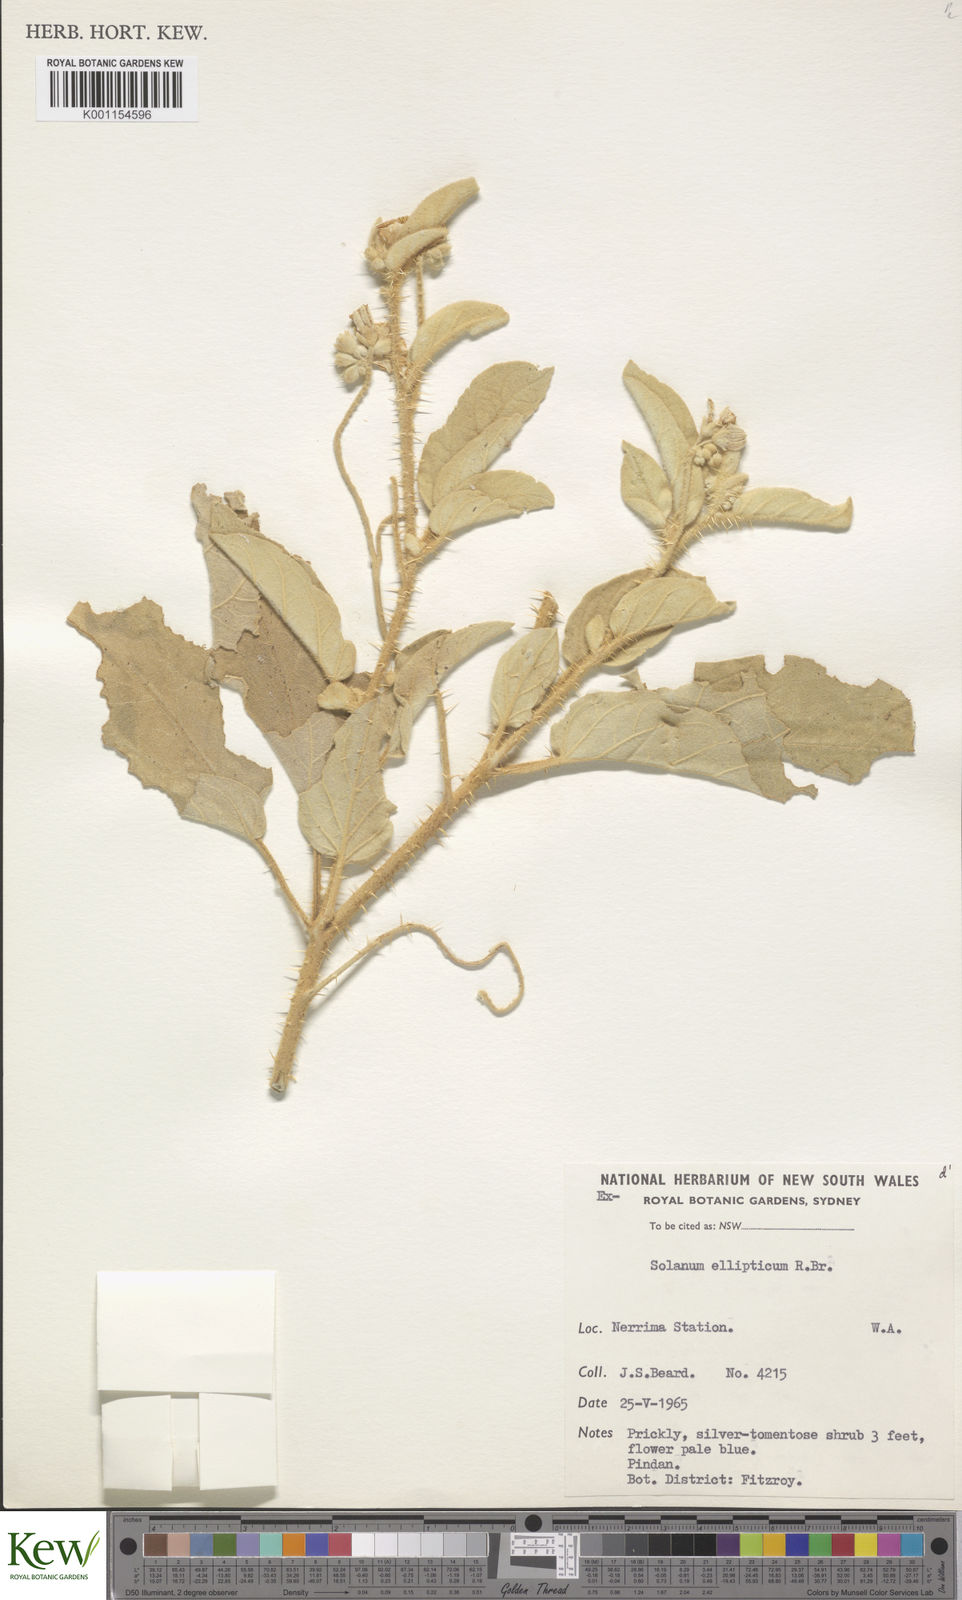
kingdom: Plantae
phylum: Tracheophyta
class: Magnoliopsida
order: Solanales
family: Solanaceae
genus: Solanum
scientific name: Solanum ellipticum
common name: Potato-bush
